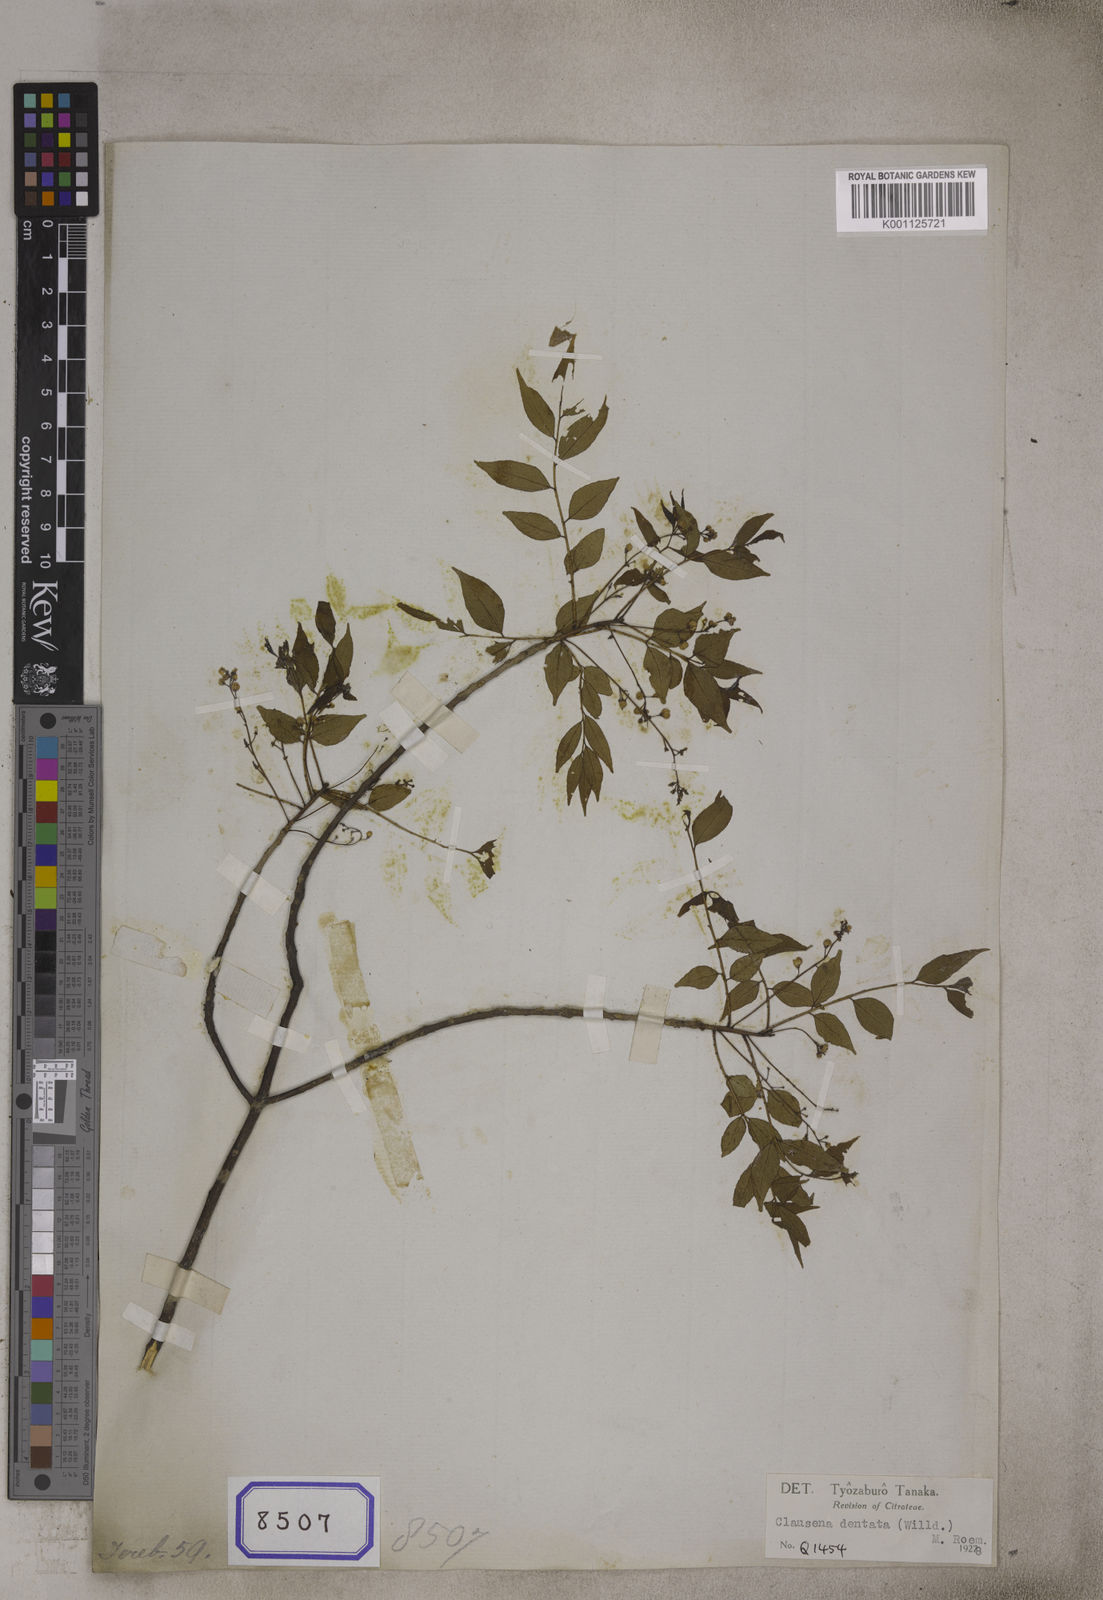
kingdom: Plantae
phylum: Tracheophyta
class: Magnoliopsida
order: Sapindales
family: Rutaceae
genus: Clausena
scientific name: Clausena anisata
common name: Horsewood
